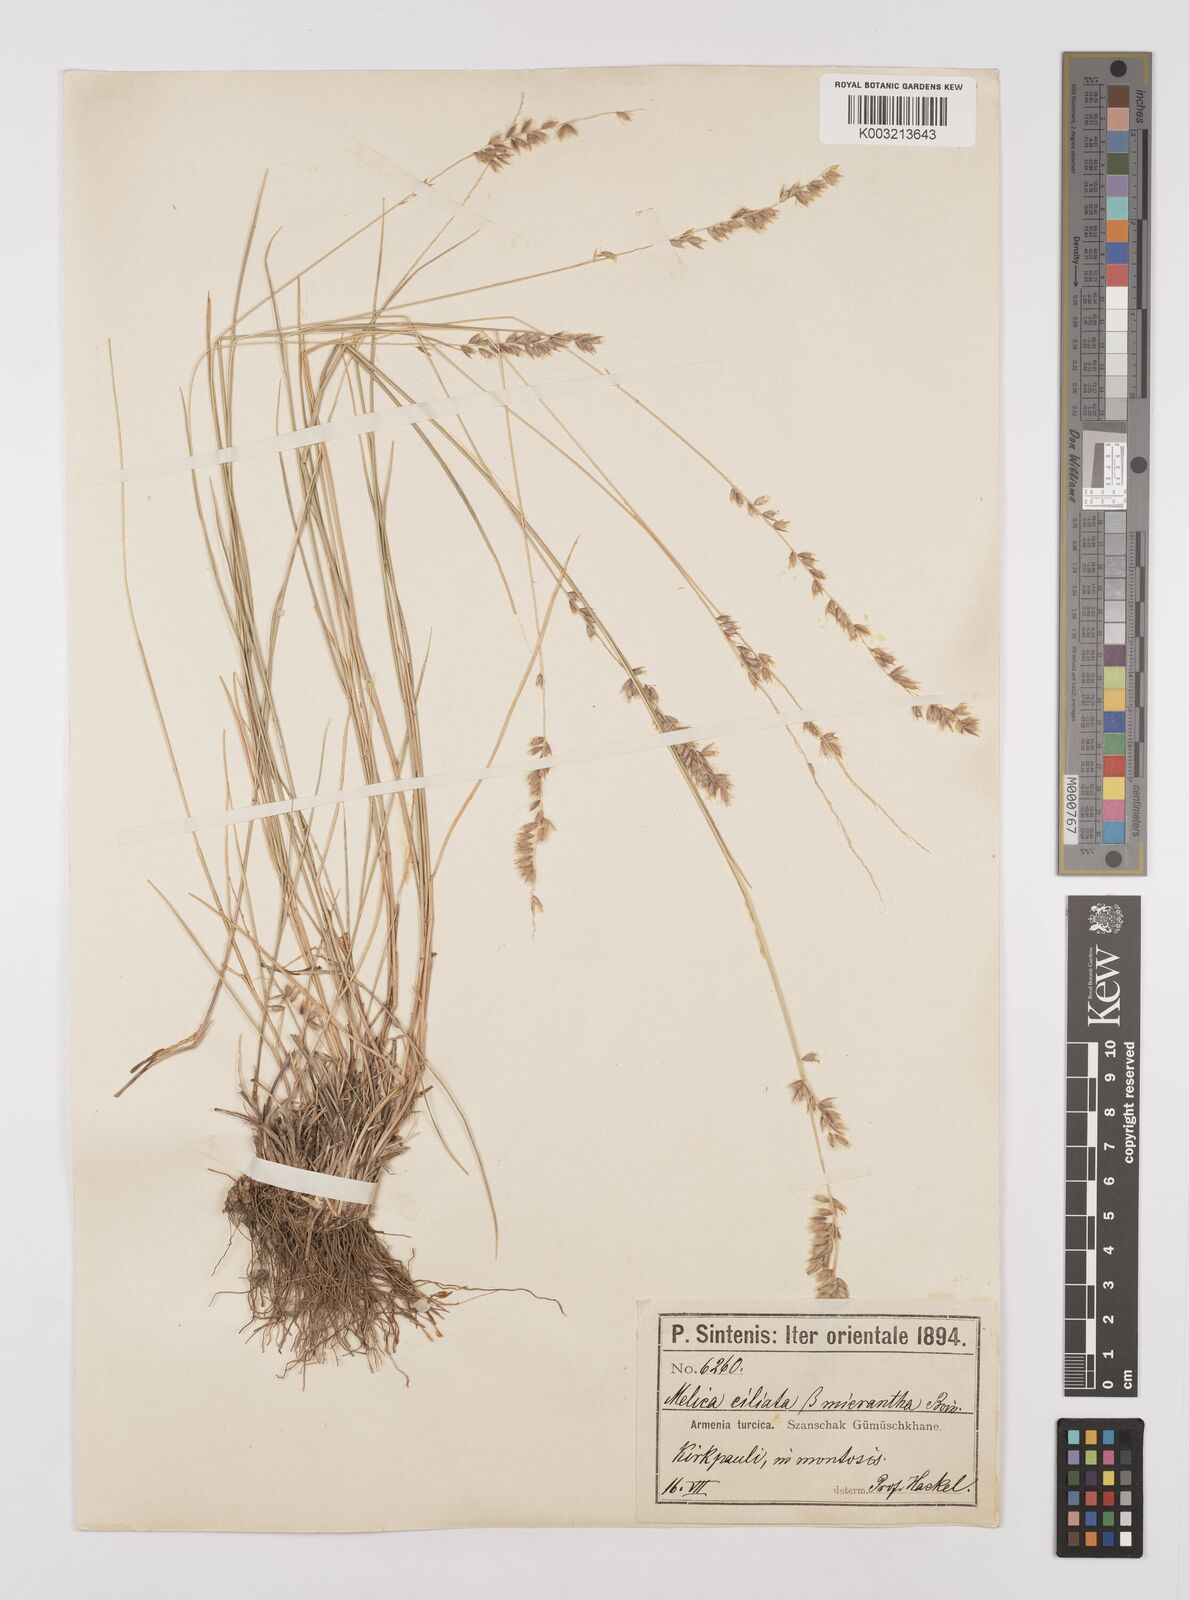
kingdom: Plantae
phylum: Tracheophyta
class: Liliopsida
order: Poales
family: Poaceae
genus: Melica
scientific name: Melica ciliata
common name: Hairy melicgrass
